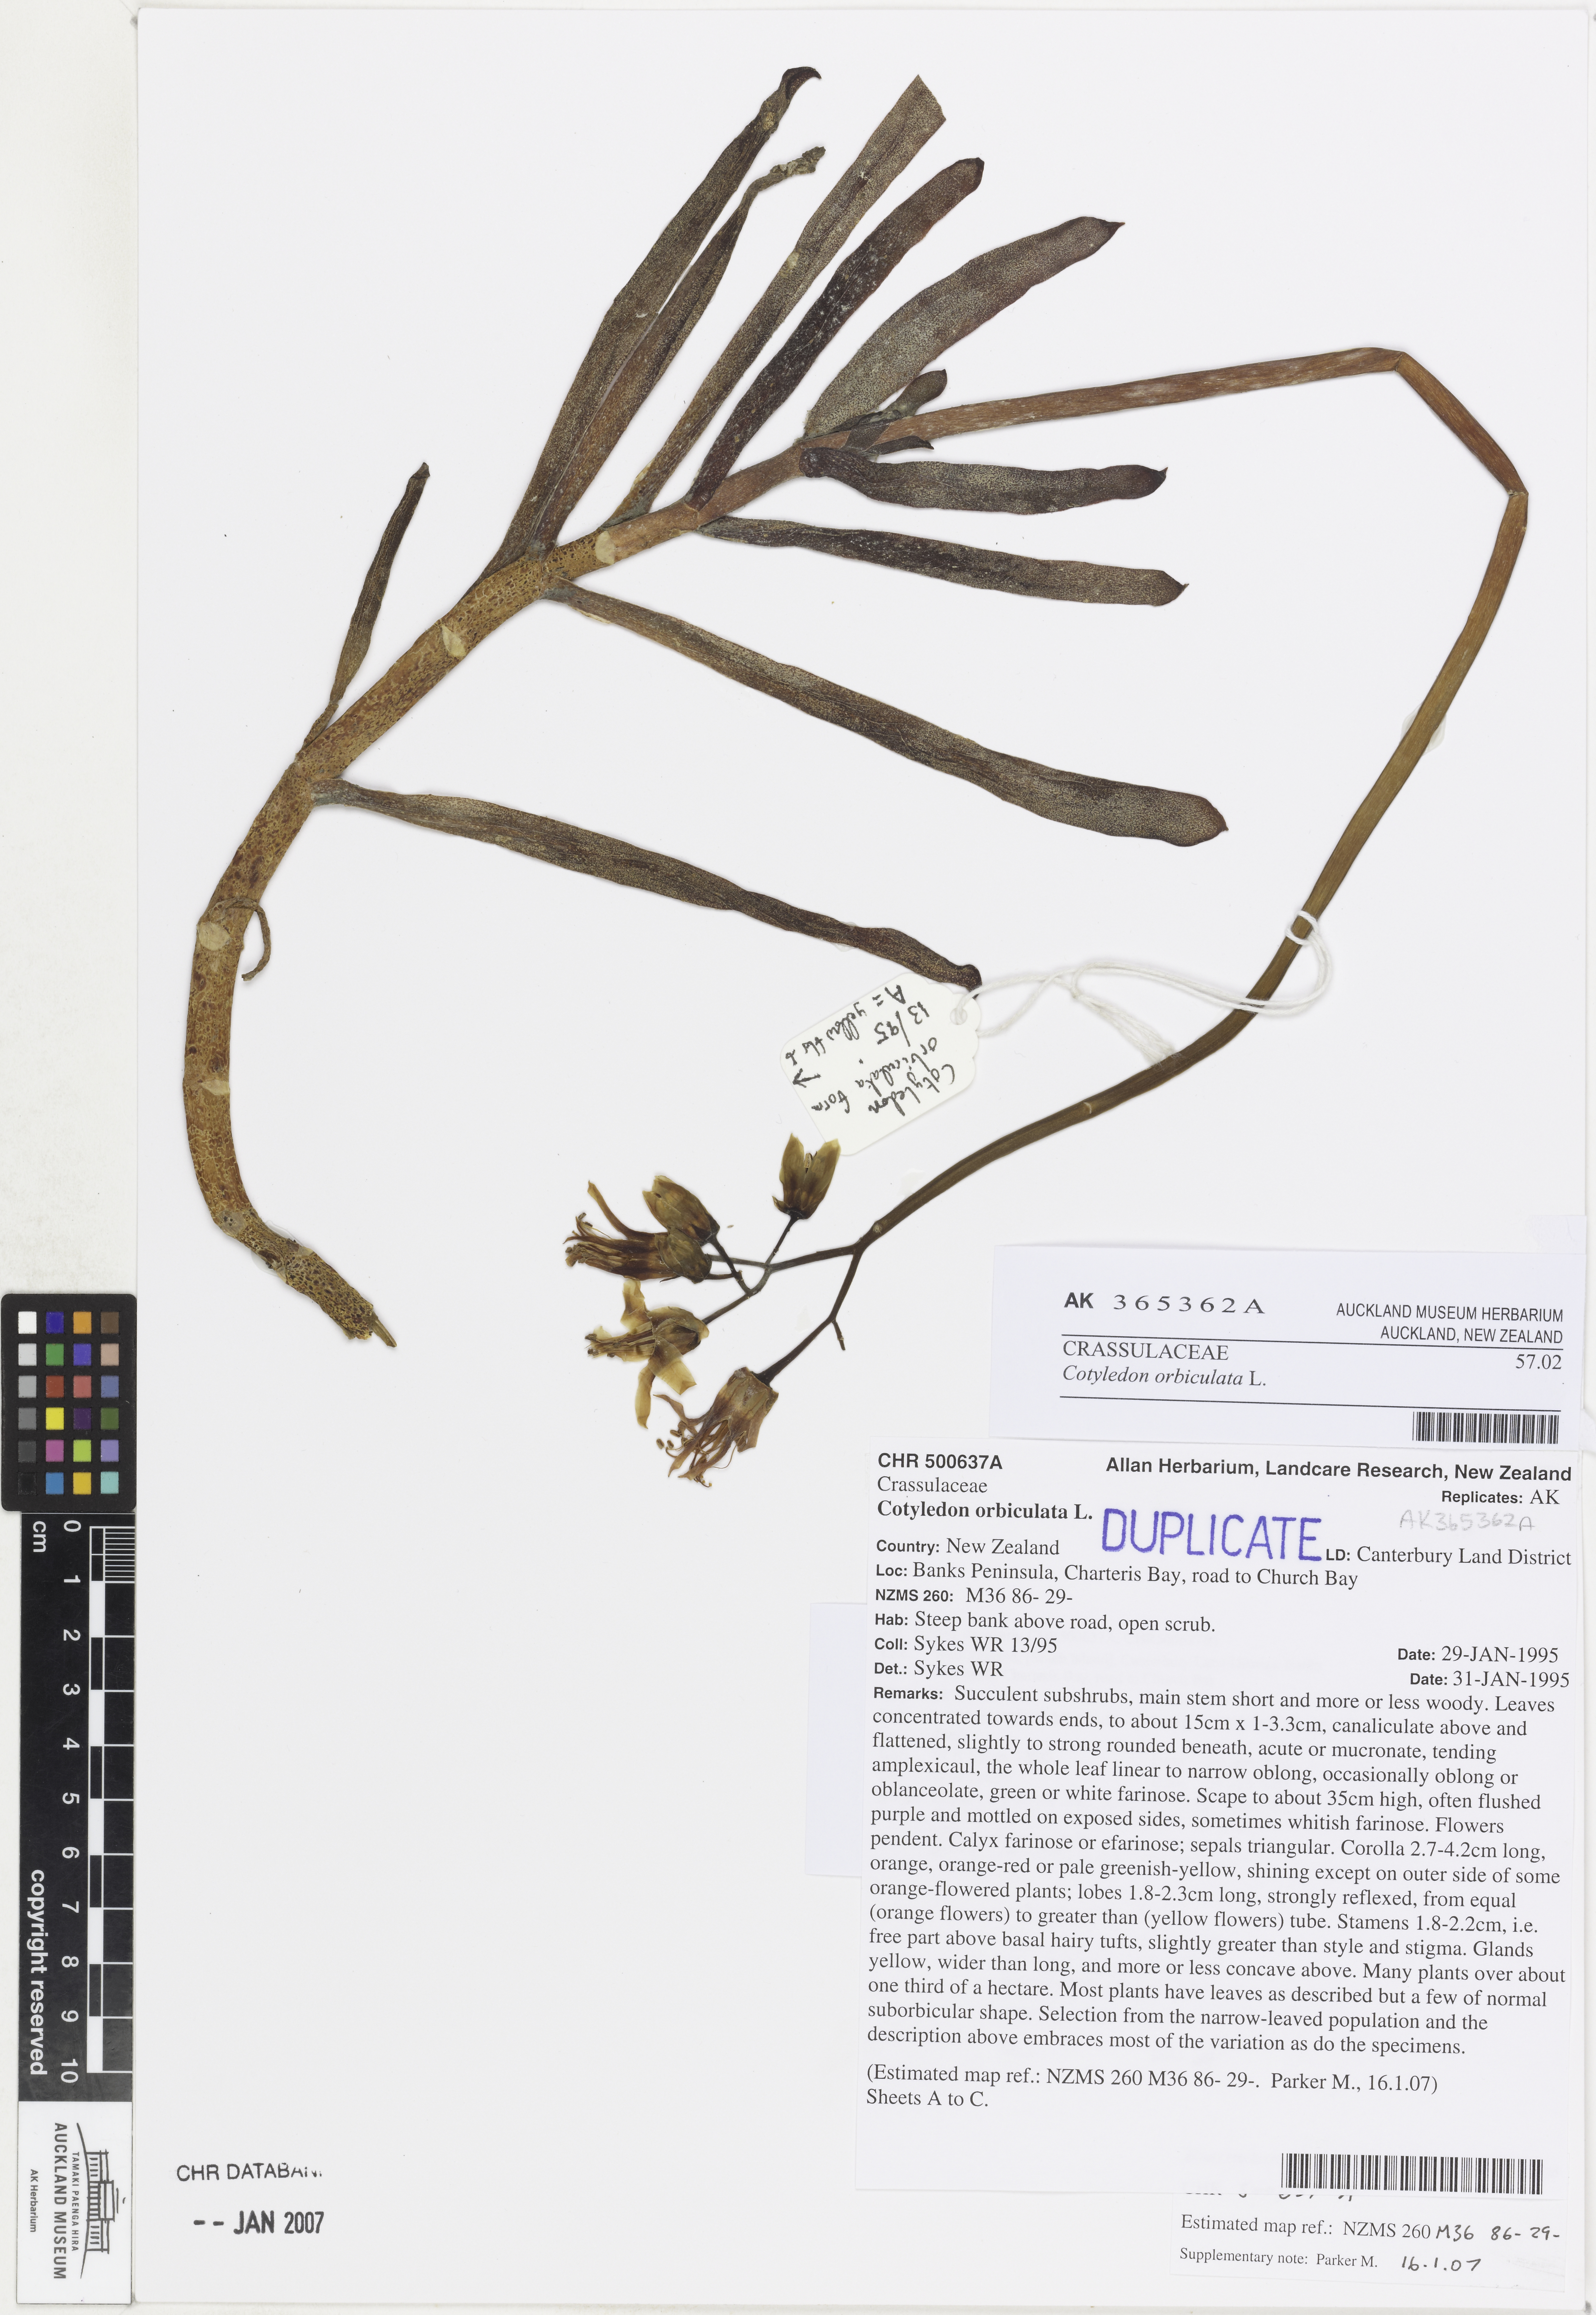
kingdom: Plantae
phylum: Tracheophyta
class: Magnoliopsida
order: Saxifragales
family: Crassulaceae
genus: Cotyledon
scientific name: Cotyledon orbiculata
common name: Pig's ear
